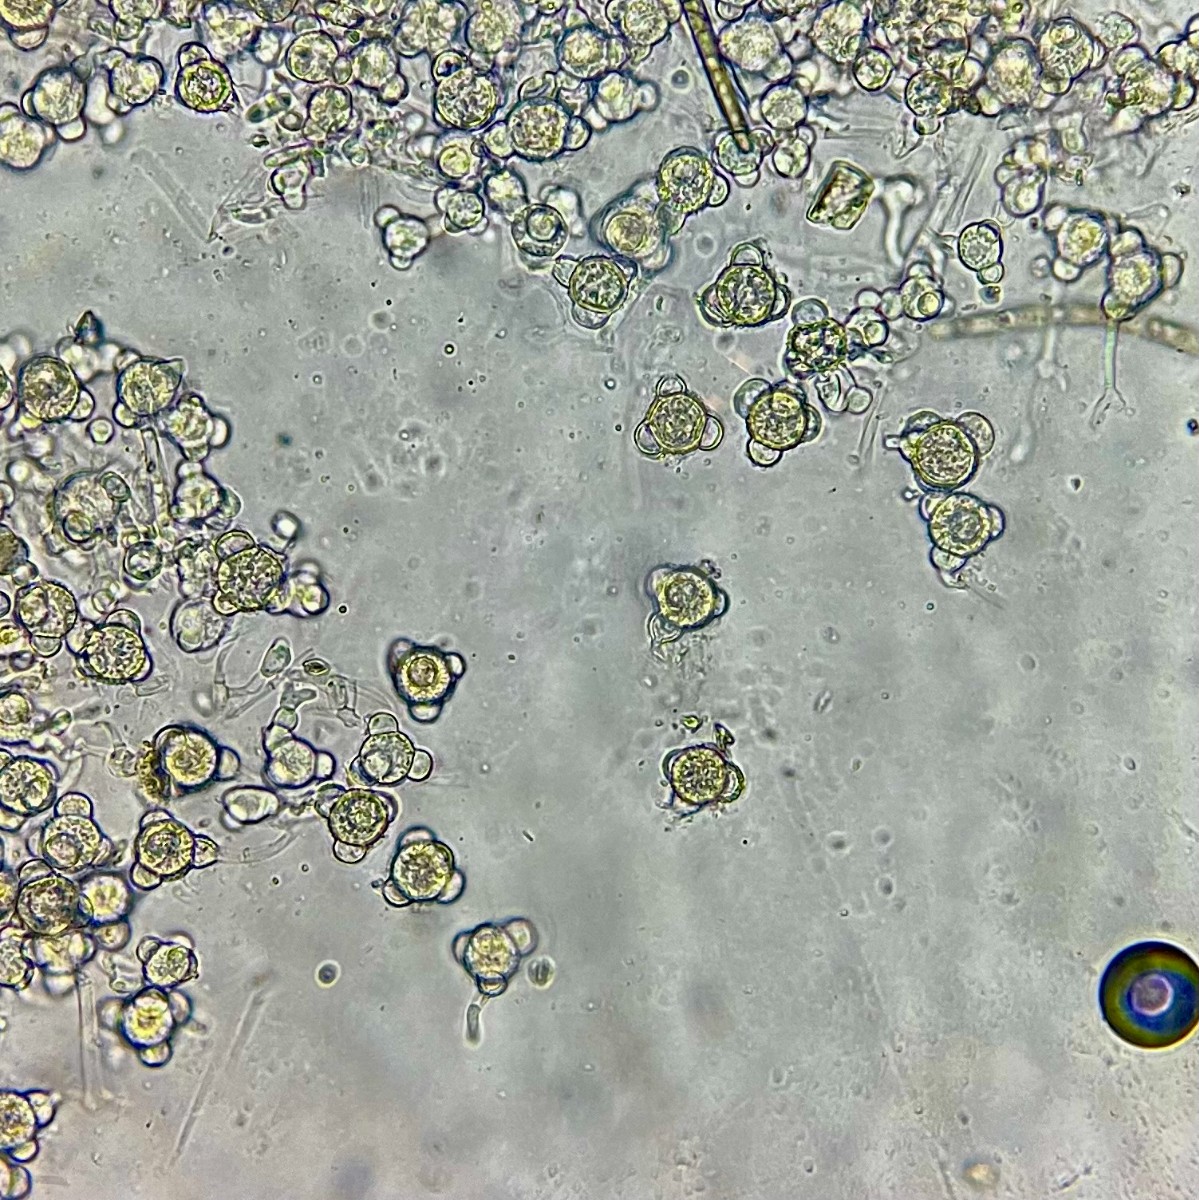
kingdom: Fungi
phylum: Ascomycota
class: Sordariomycetes
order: Hypocreales
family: Hypocreaceae
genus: Stephanoma
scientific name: Stephanoma tetracoccum
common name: øresporet snylteskorpe
